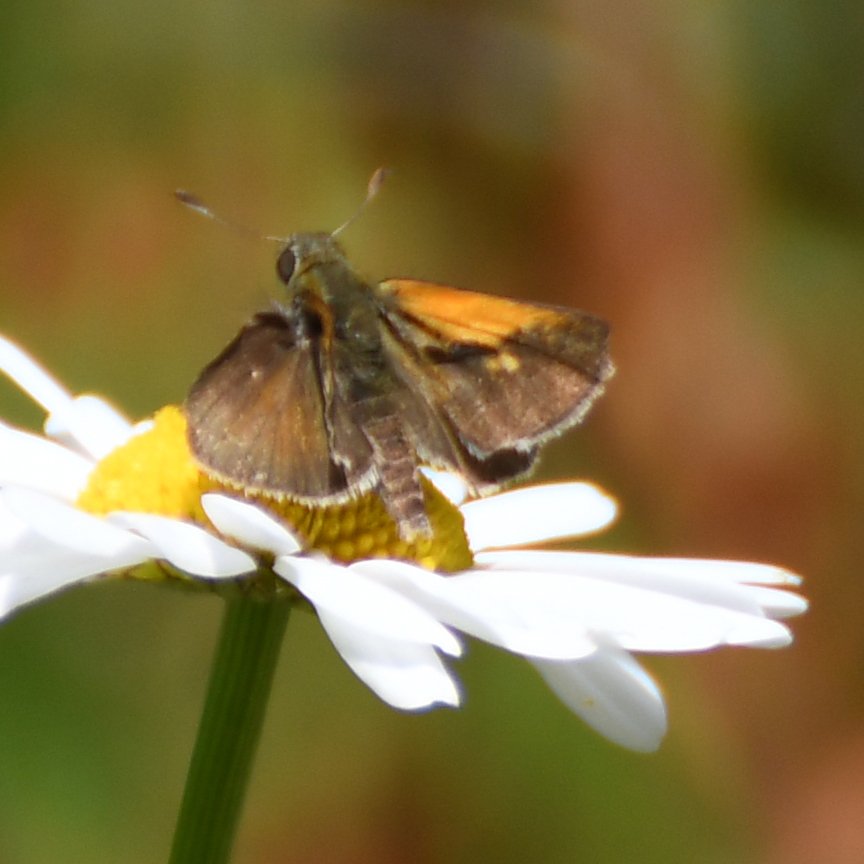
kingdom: Animalia
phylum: Arthropoda
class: Insecta
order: Lepidoptera
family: Hesperiidae
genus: Polites
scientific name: Polites themistocles
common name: Tawny-edged Skipper
